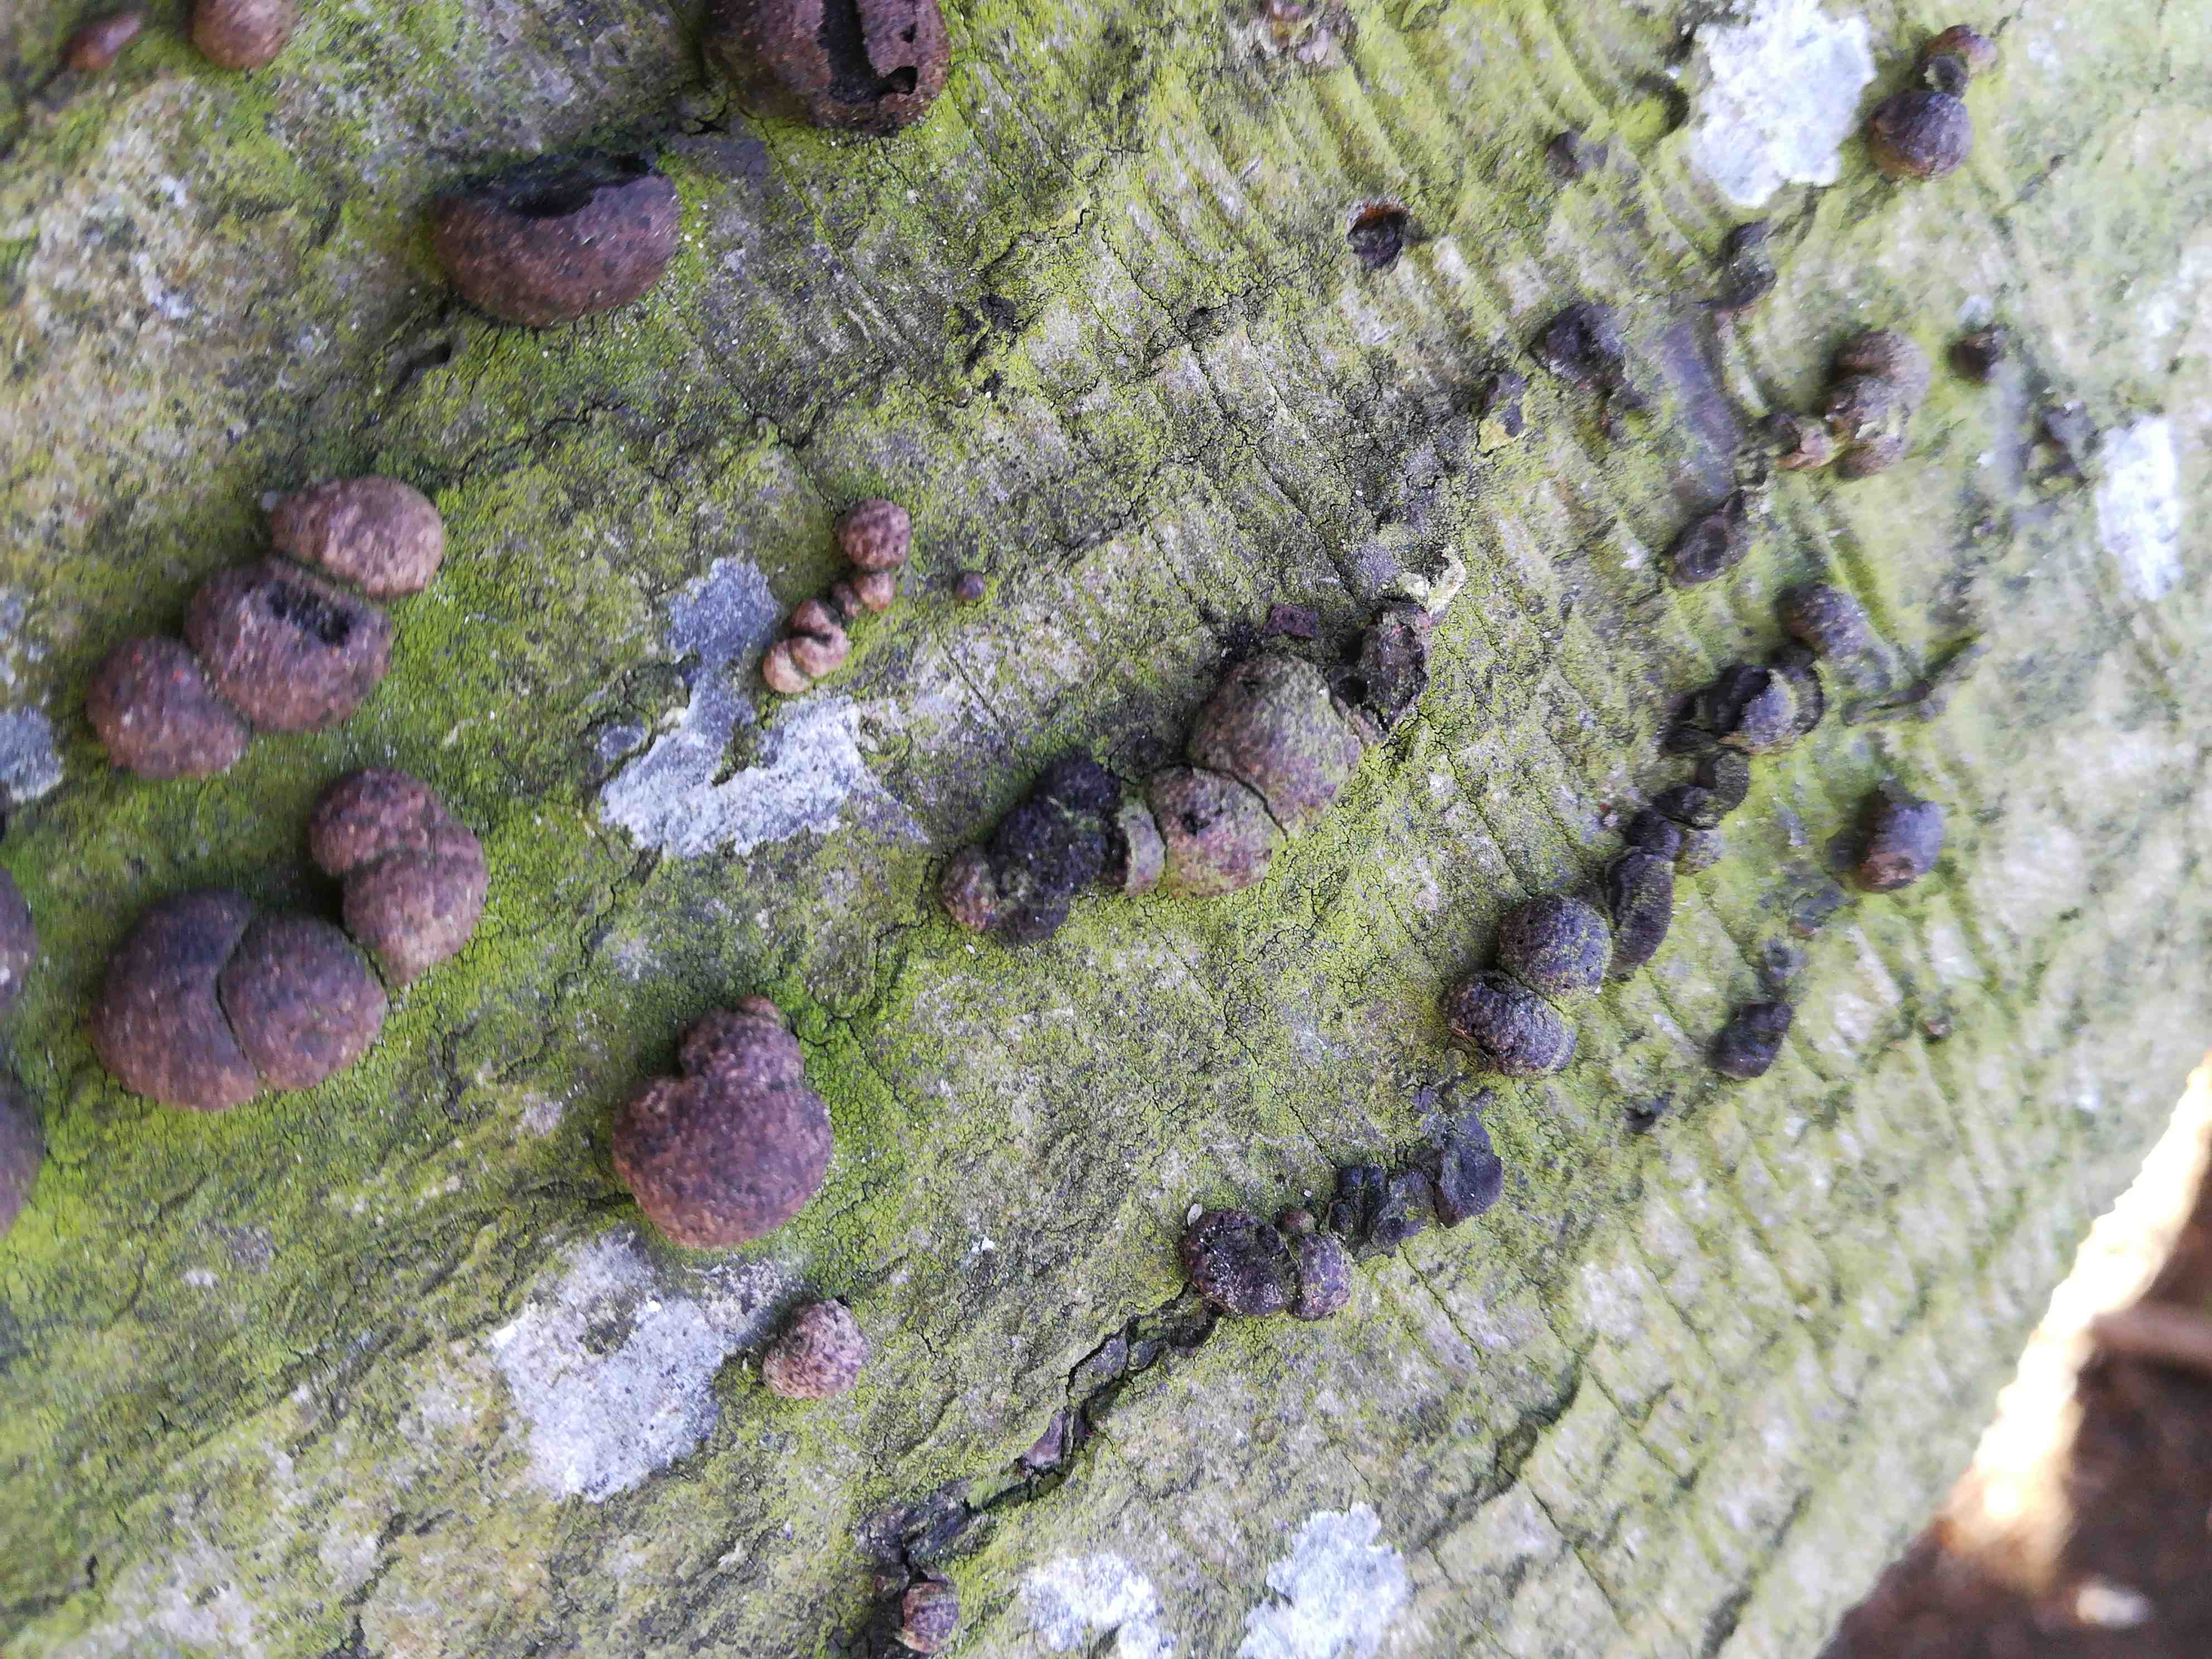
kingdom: Fungi
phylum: Ascomycota
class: Sordariomycetes
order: Xylariales
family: Hypoxylaceae
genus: Hypoxylon
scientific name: Hypoxylon fragiforme
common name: kuljordbær
